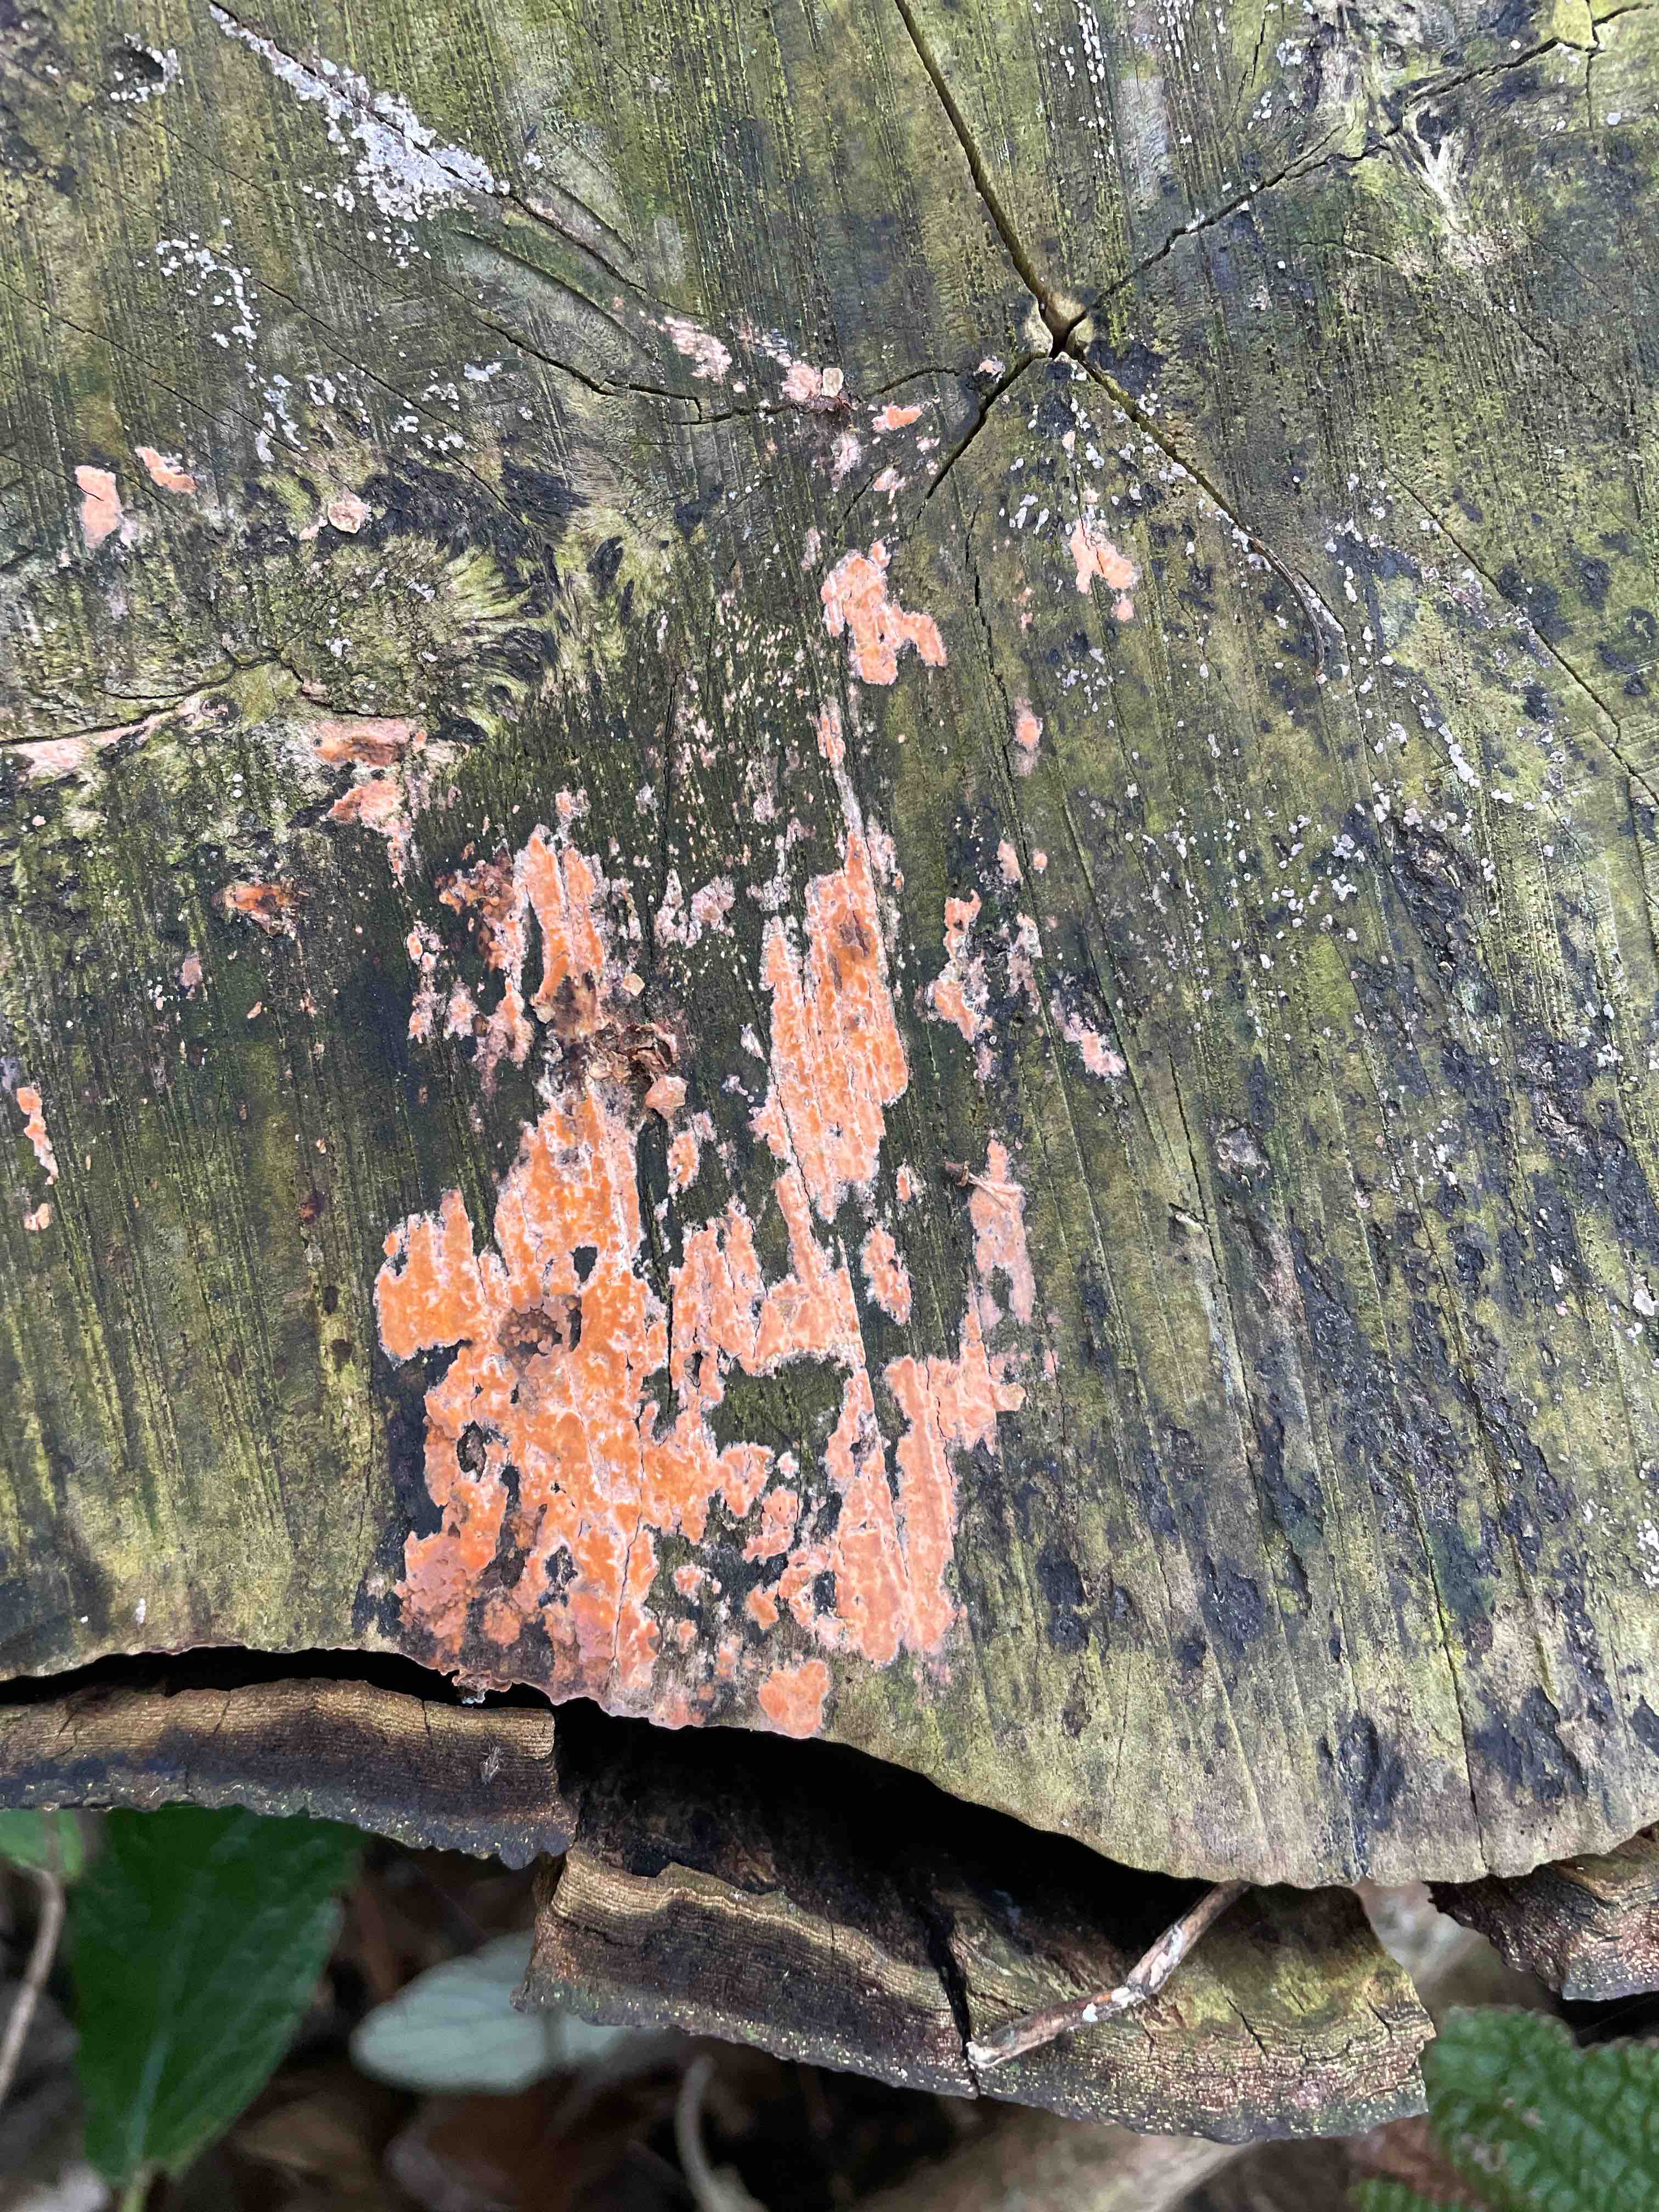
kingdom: Fungi
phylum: Basidiomycota
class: Agaricomycetes
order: Russulales
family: Peniophoraceae
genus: Peniophora
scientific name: Peniophora incarnata
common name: laksefarvet voksskind
